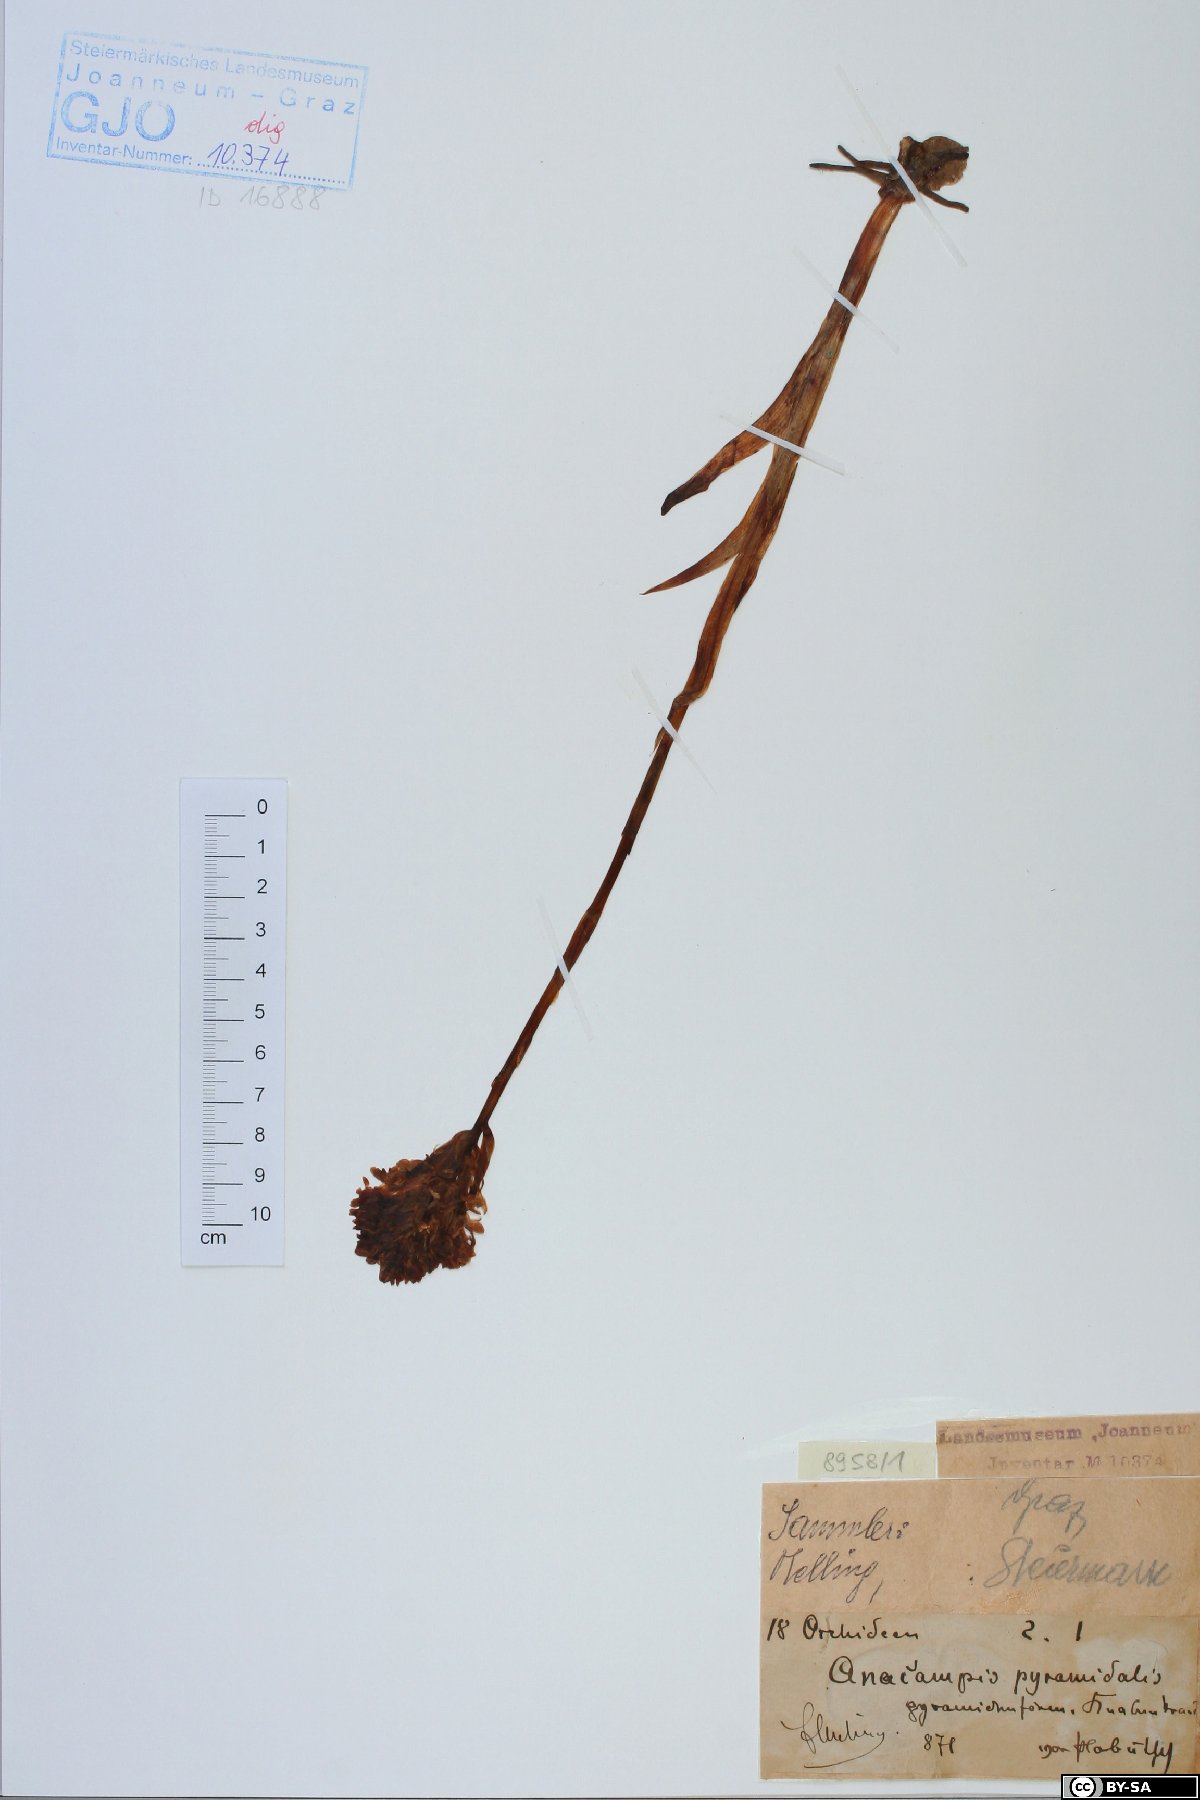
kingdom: Plantae
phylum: Tracheophyta
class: Liliopsida
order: Asparagales
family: Orchidaceae
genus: Anacamptis
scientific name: Anacamptis pyramidalis
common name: Pyramidal orchid
